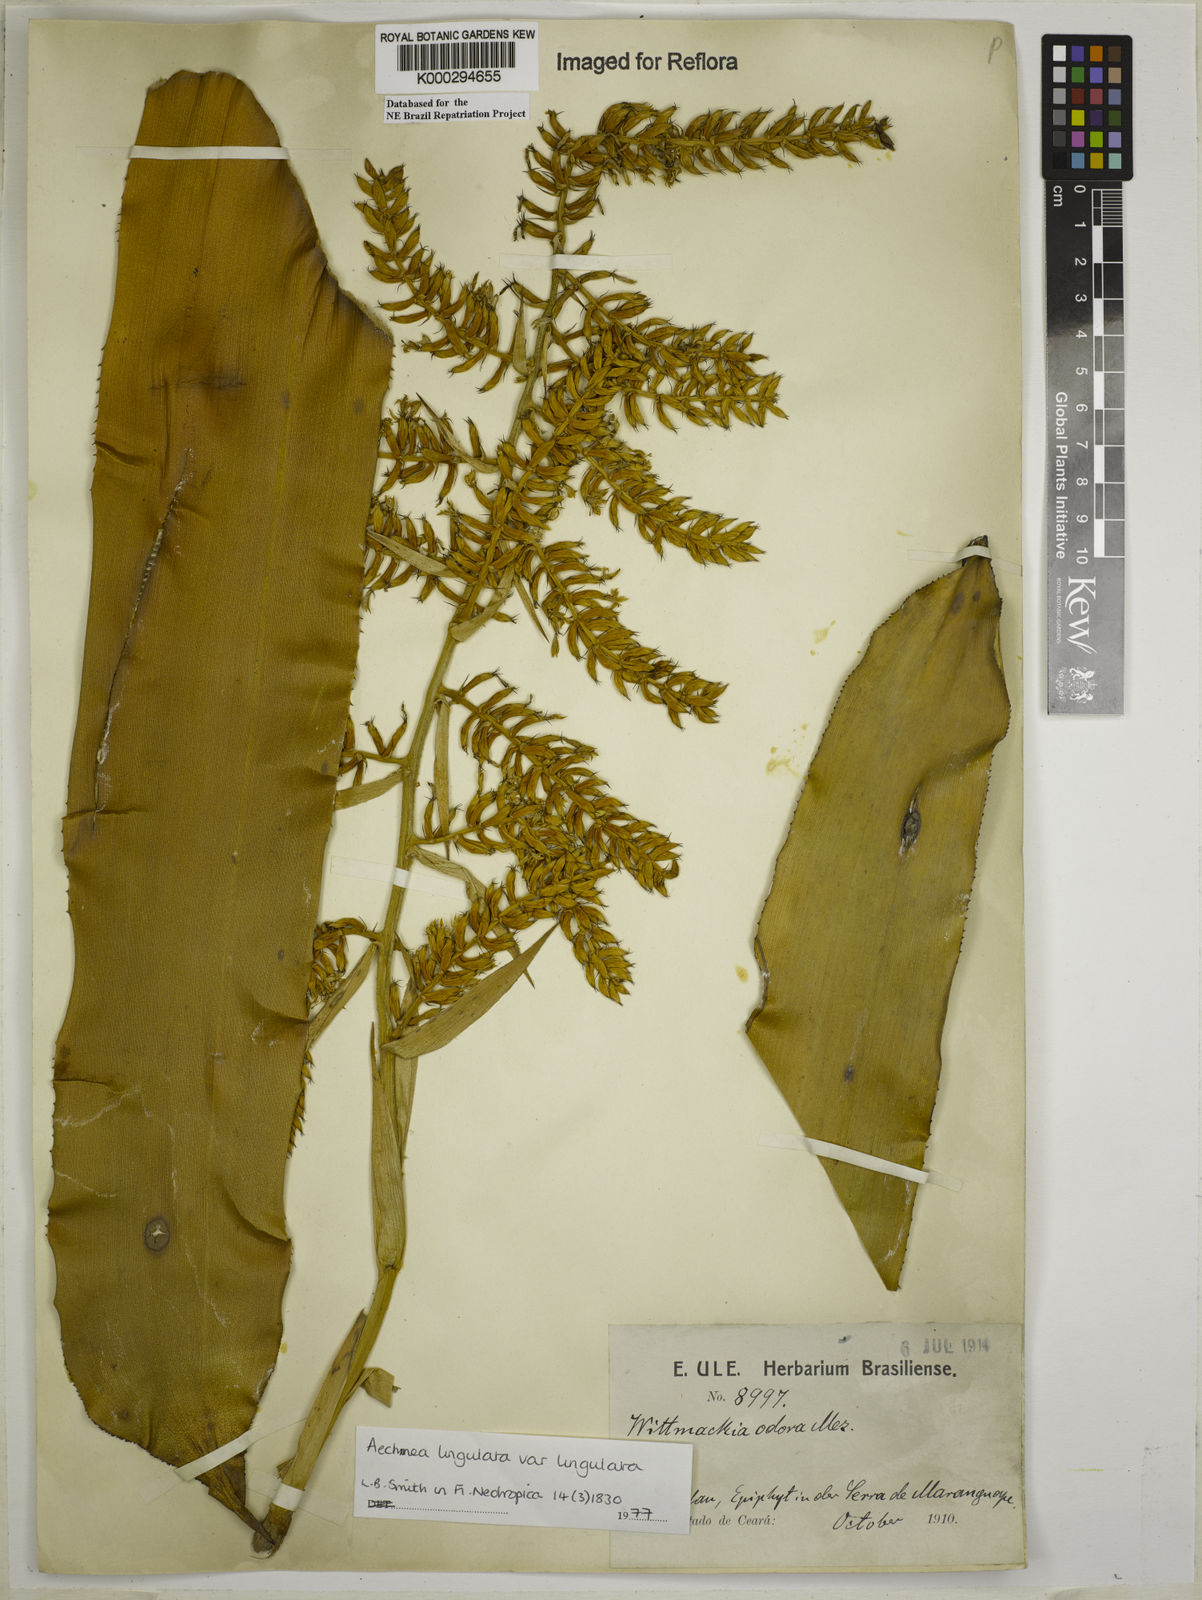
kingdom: Plantae
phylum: Tracheophyta
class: Liliopsida
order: Poales
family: Bromeliaceae
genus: Wittmackia
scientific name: Wittmackia lingulata
